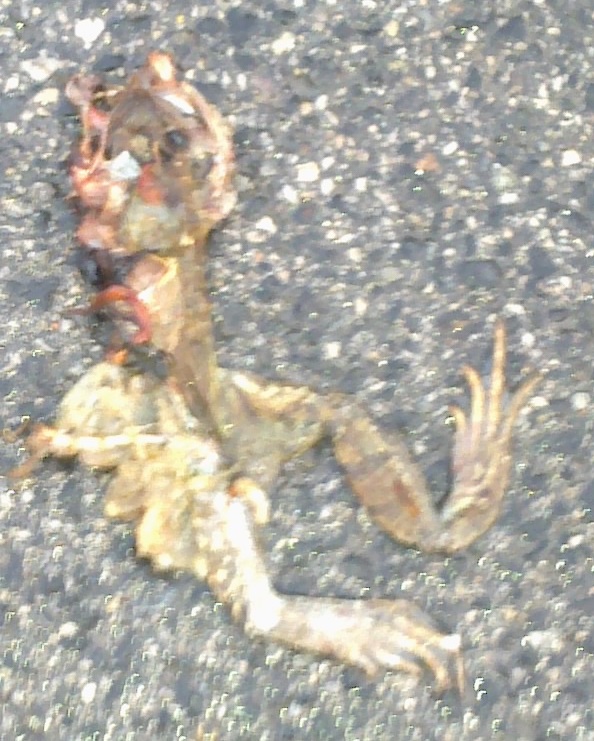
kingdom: Animalia
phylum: Chordata
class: Amphibia
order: Anura
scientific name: Anura
